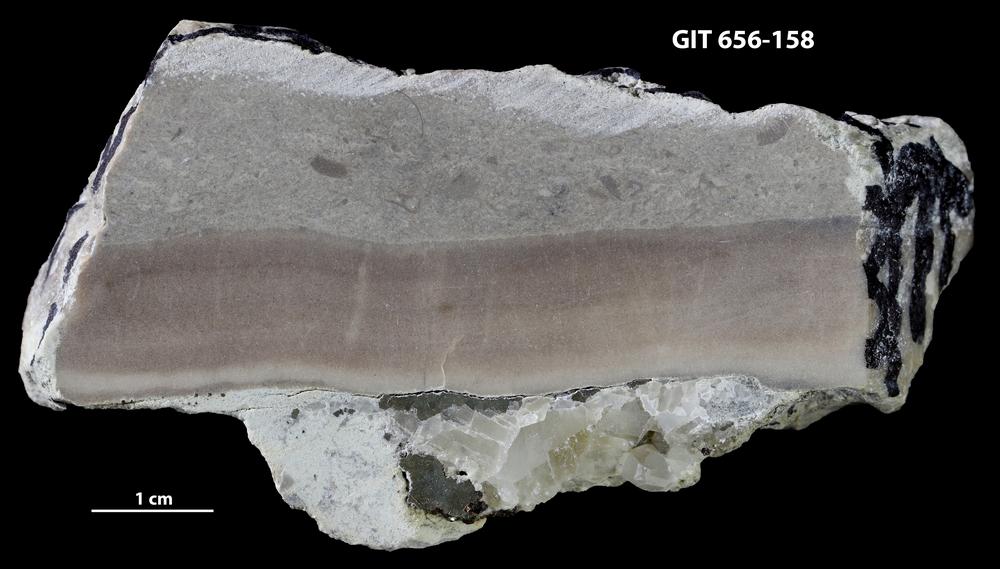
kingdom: Animalia
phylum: Porifera
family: Syringostromellidae
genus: Syringostromella
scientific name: Syringostromella
